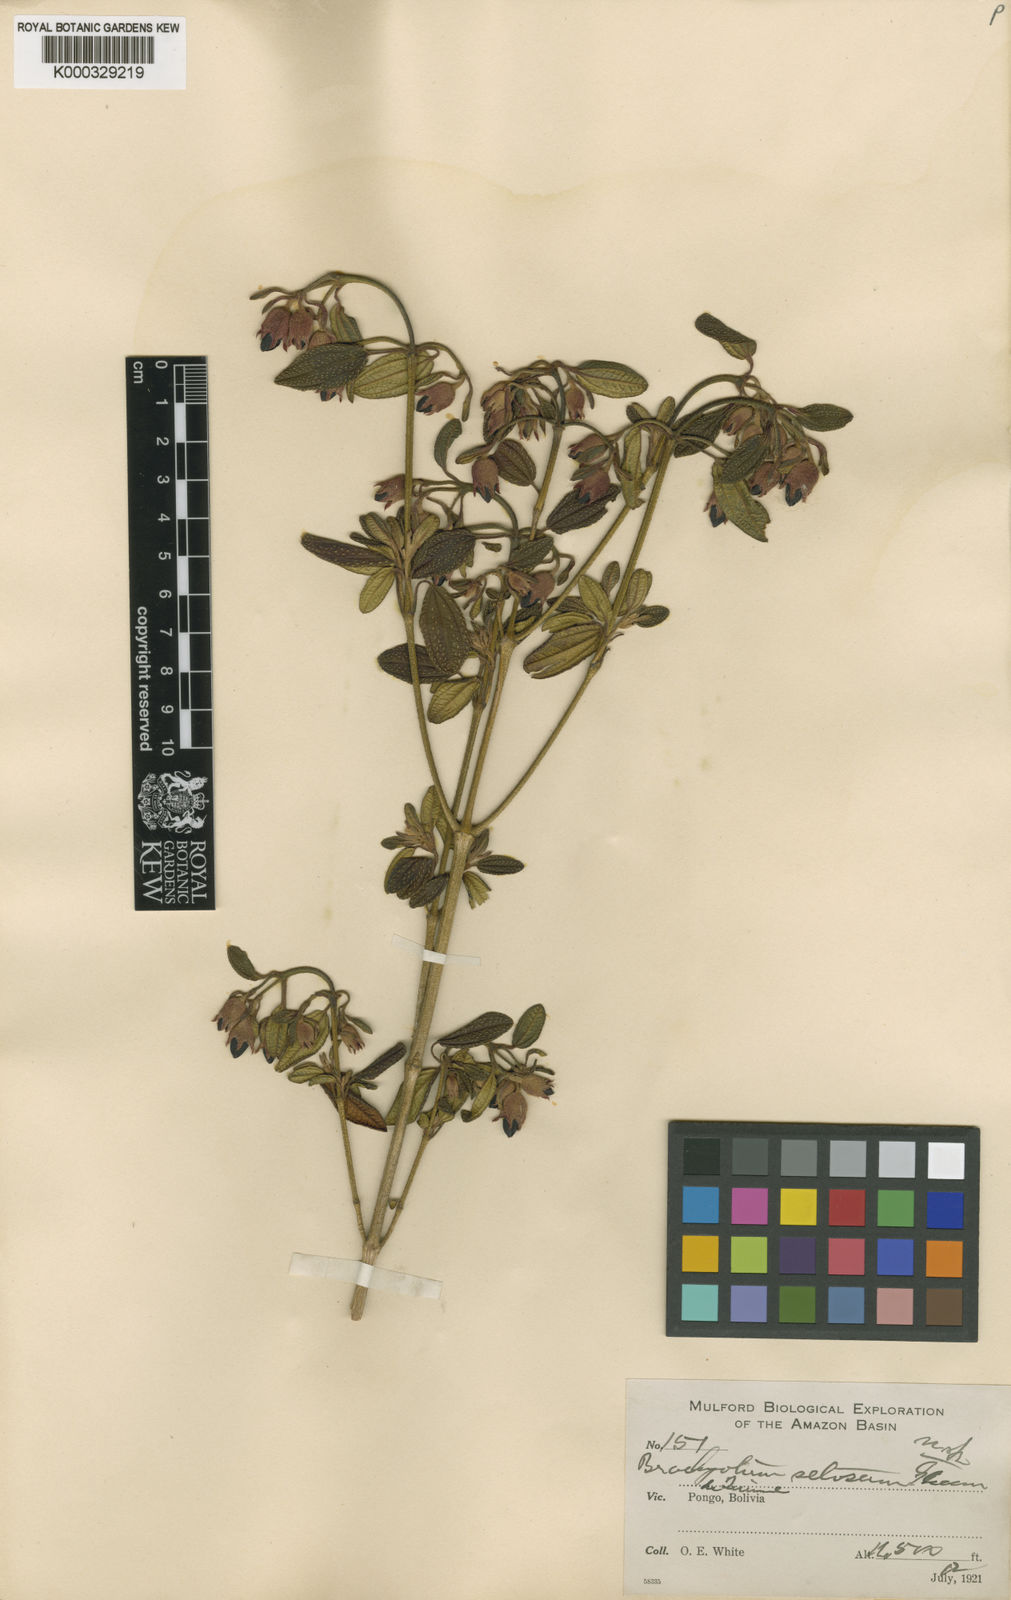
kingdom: Plantae
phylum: Tracheophyta
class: Magnoliopsida
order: Myrtales
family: Melastomataceae
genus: Brachyotum
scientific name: Brachyotum microdon
